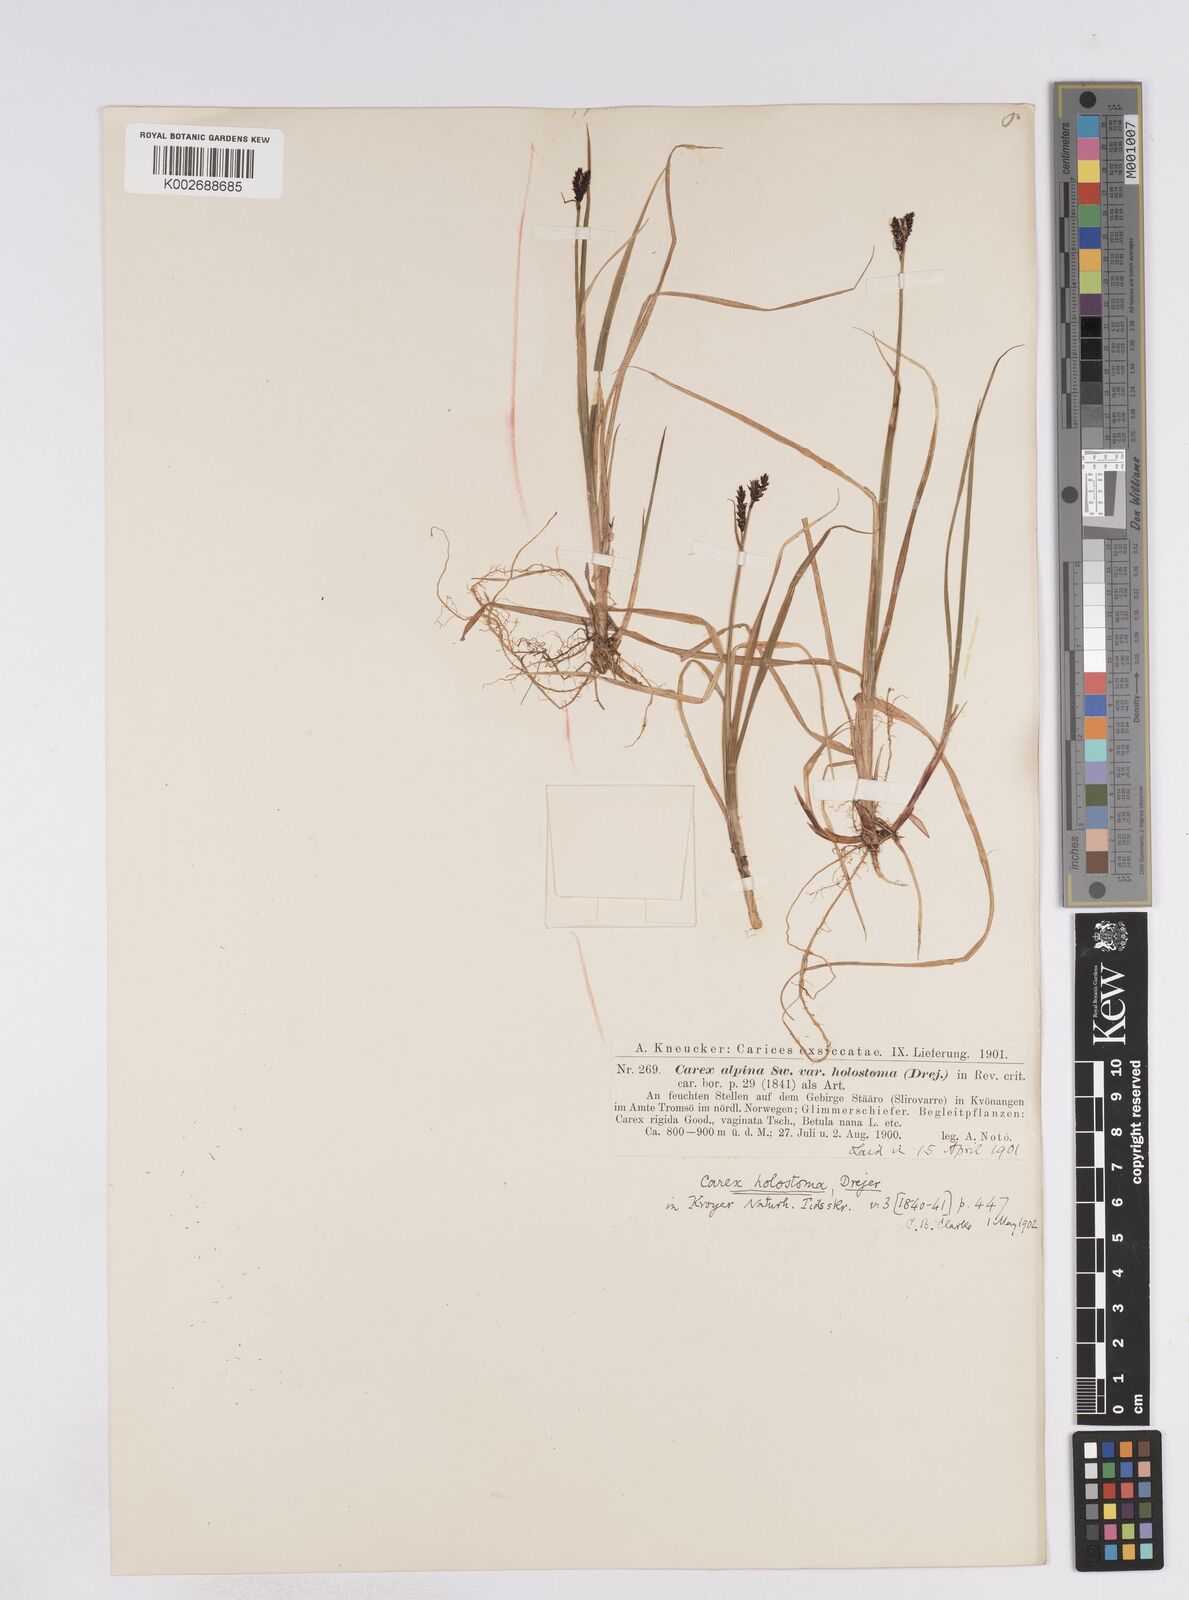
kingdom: Plantae
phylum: Tracheophyta
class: Liliopsida
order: Poales
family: Cyperaceae
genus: Carex
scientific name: Carex holostoma
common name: Arctic marsh sedge
